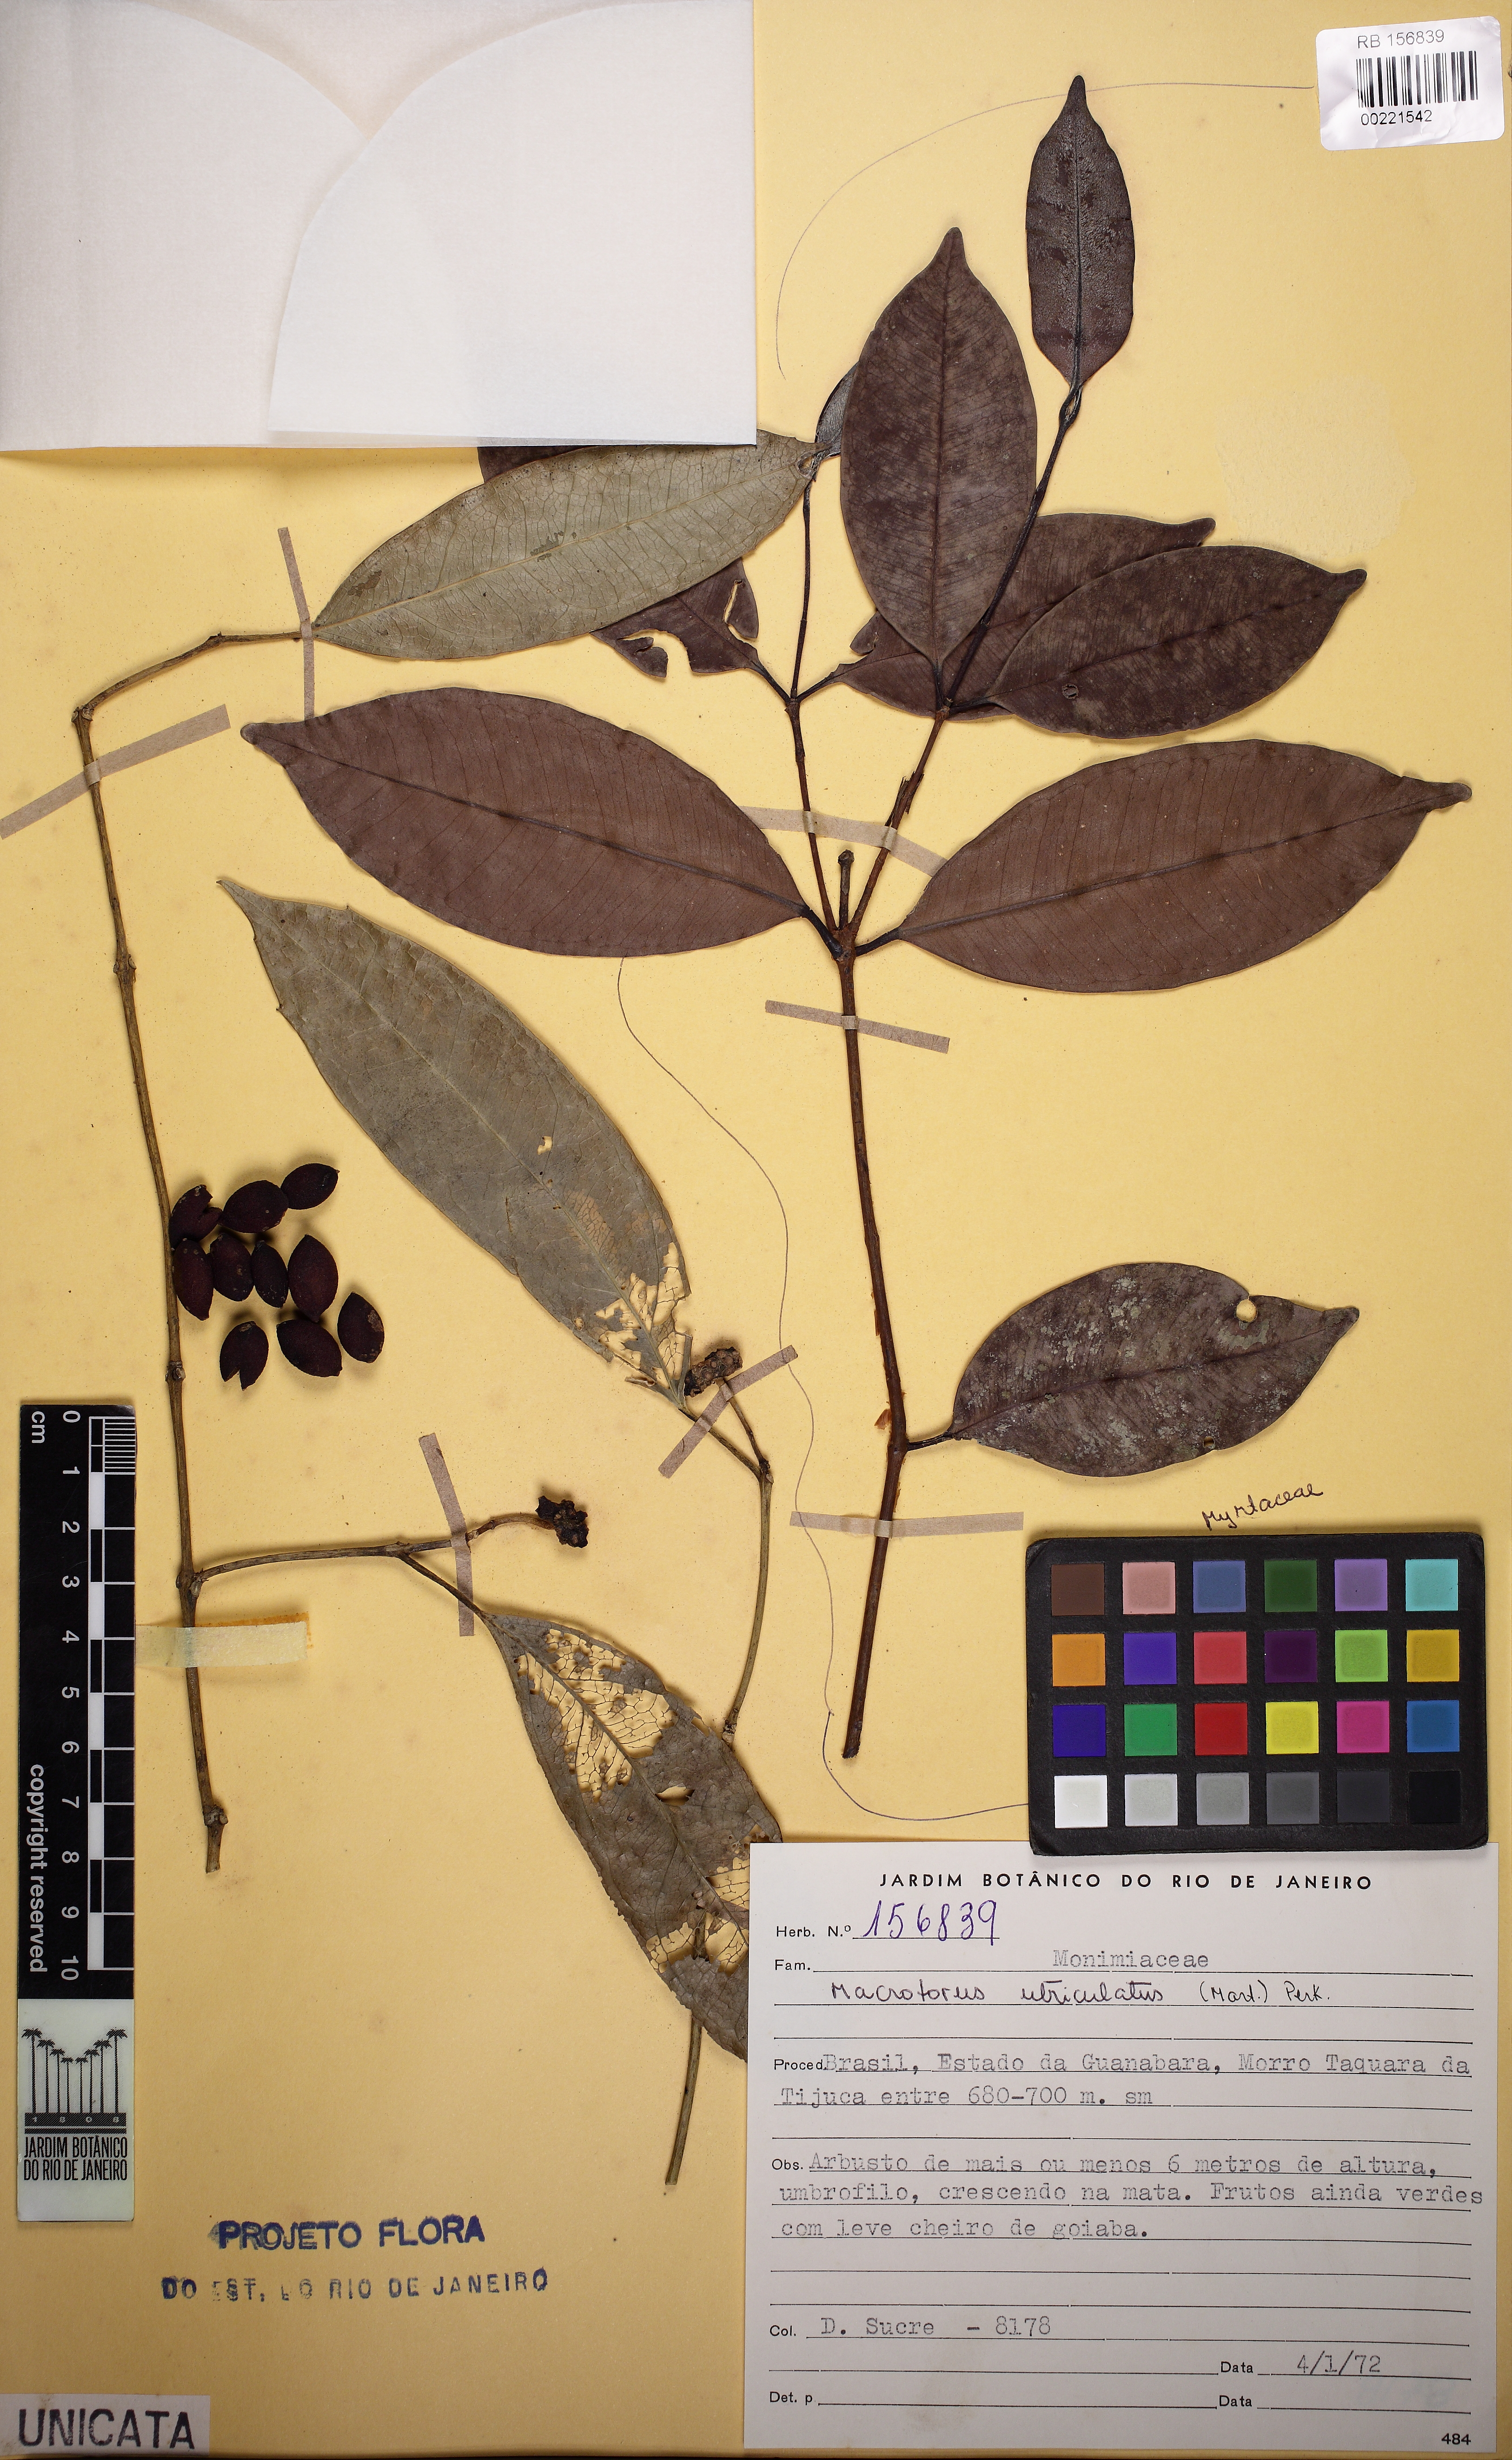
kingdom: Plantae
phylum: Tracheophyta
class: Magnoliopsida
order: Laurales
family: Monimiaceae
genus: Macrotorus
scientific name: Macrotorus utriculatus
